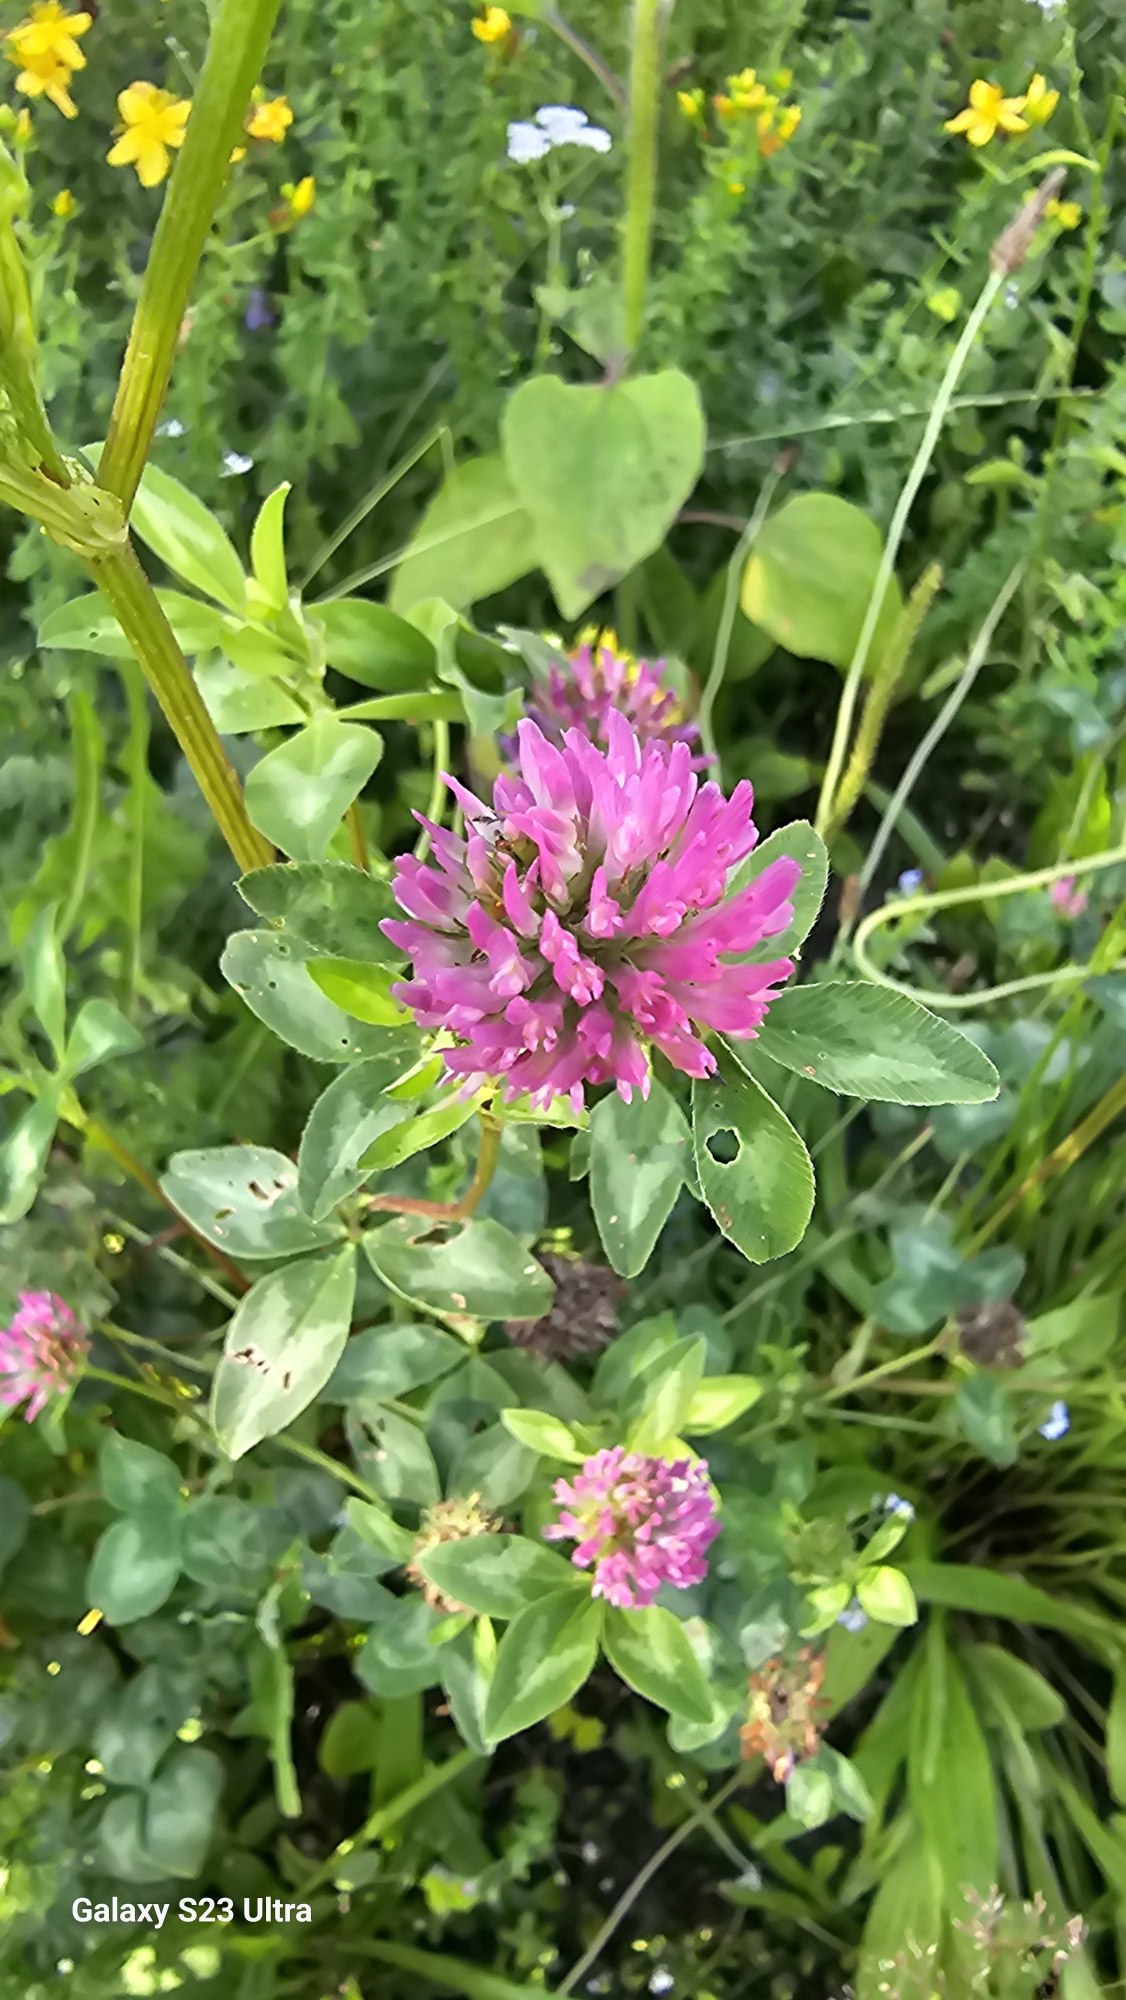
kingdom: Plantae
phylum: Tracheophyta
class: Magnoliopsida
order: Fabales
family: Fabaceae
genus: Trifolium
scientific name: Trifolium pratense
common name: Rød-kløver
